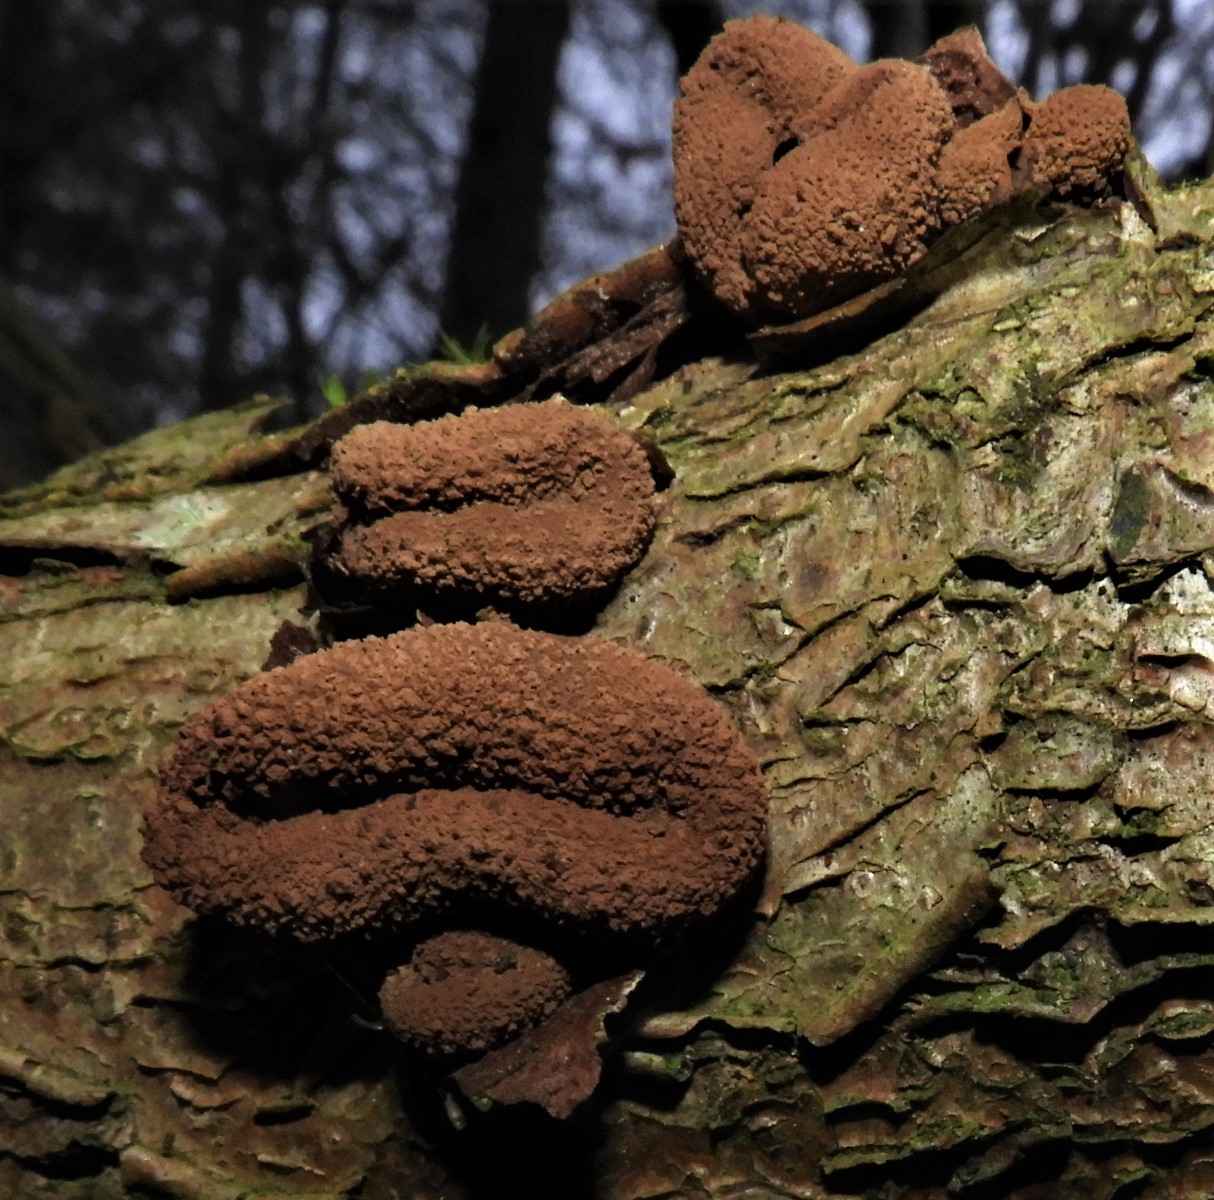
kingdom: Fungi
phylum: Ascomycota
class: Leotiomycetes
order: Helotiales
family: Cenangiaceae
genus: Encoelia
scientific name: Encoelia furfuracea
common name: hassel-læderskive
